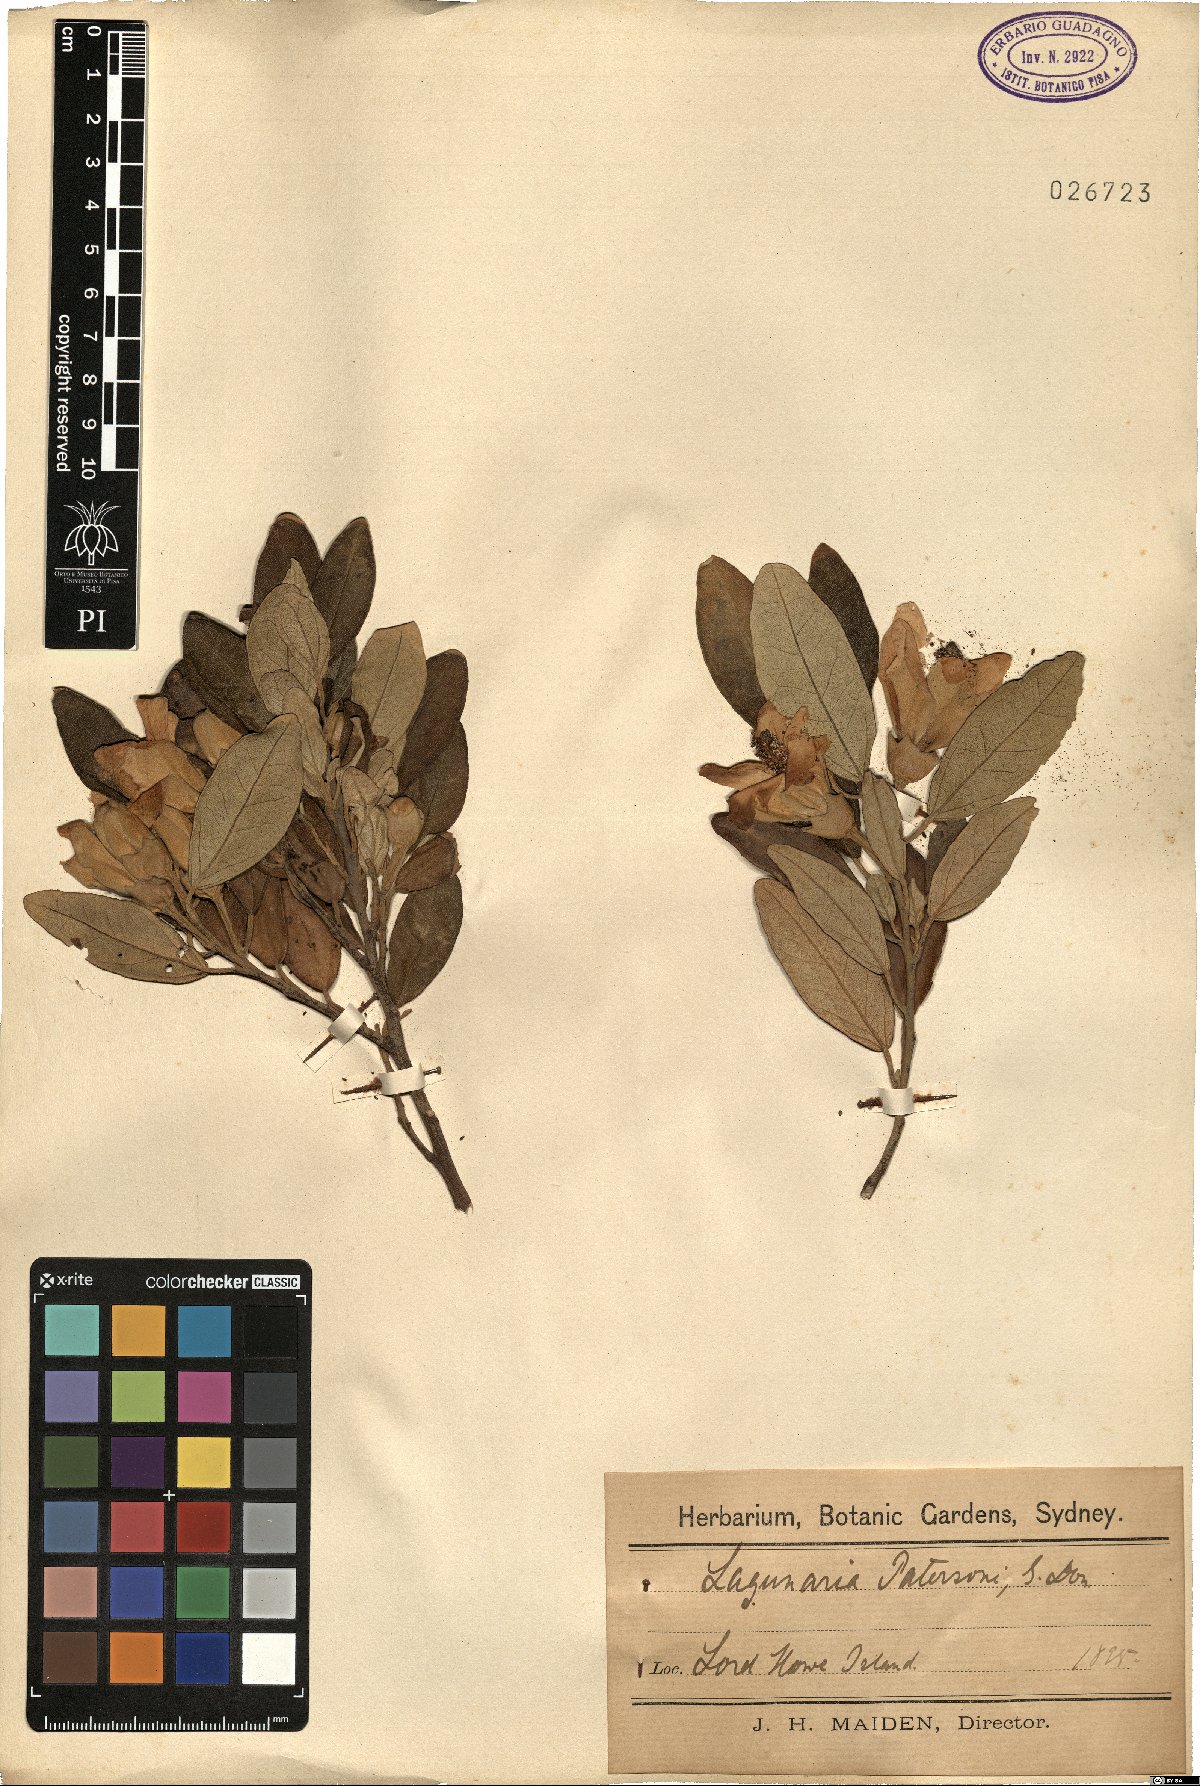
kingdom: Plantae
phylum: Tracheophyta
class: Magnoliopsida
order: Malvales
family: Malvaceae
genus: Lagunaria
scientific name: Lagunaria patersonia
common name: Cow itch tree
